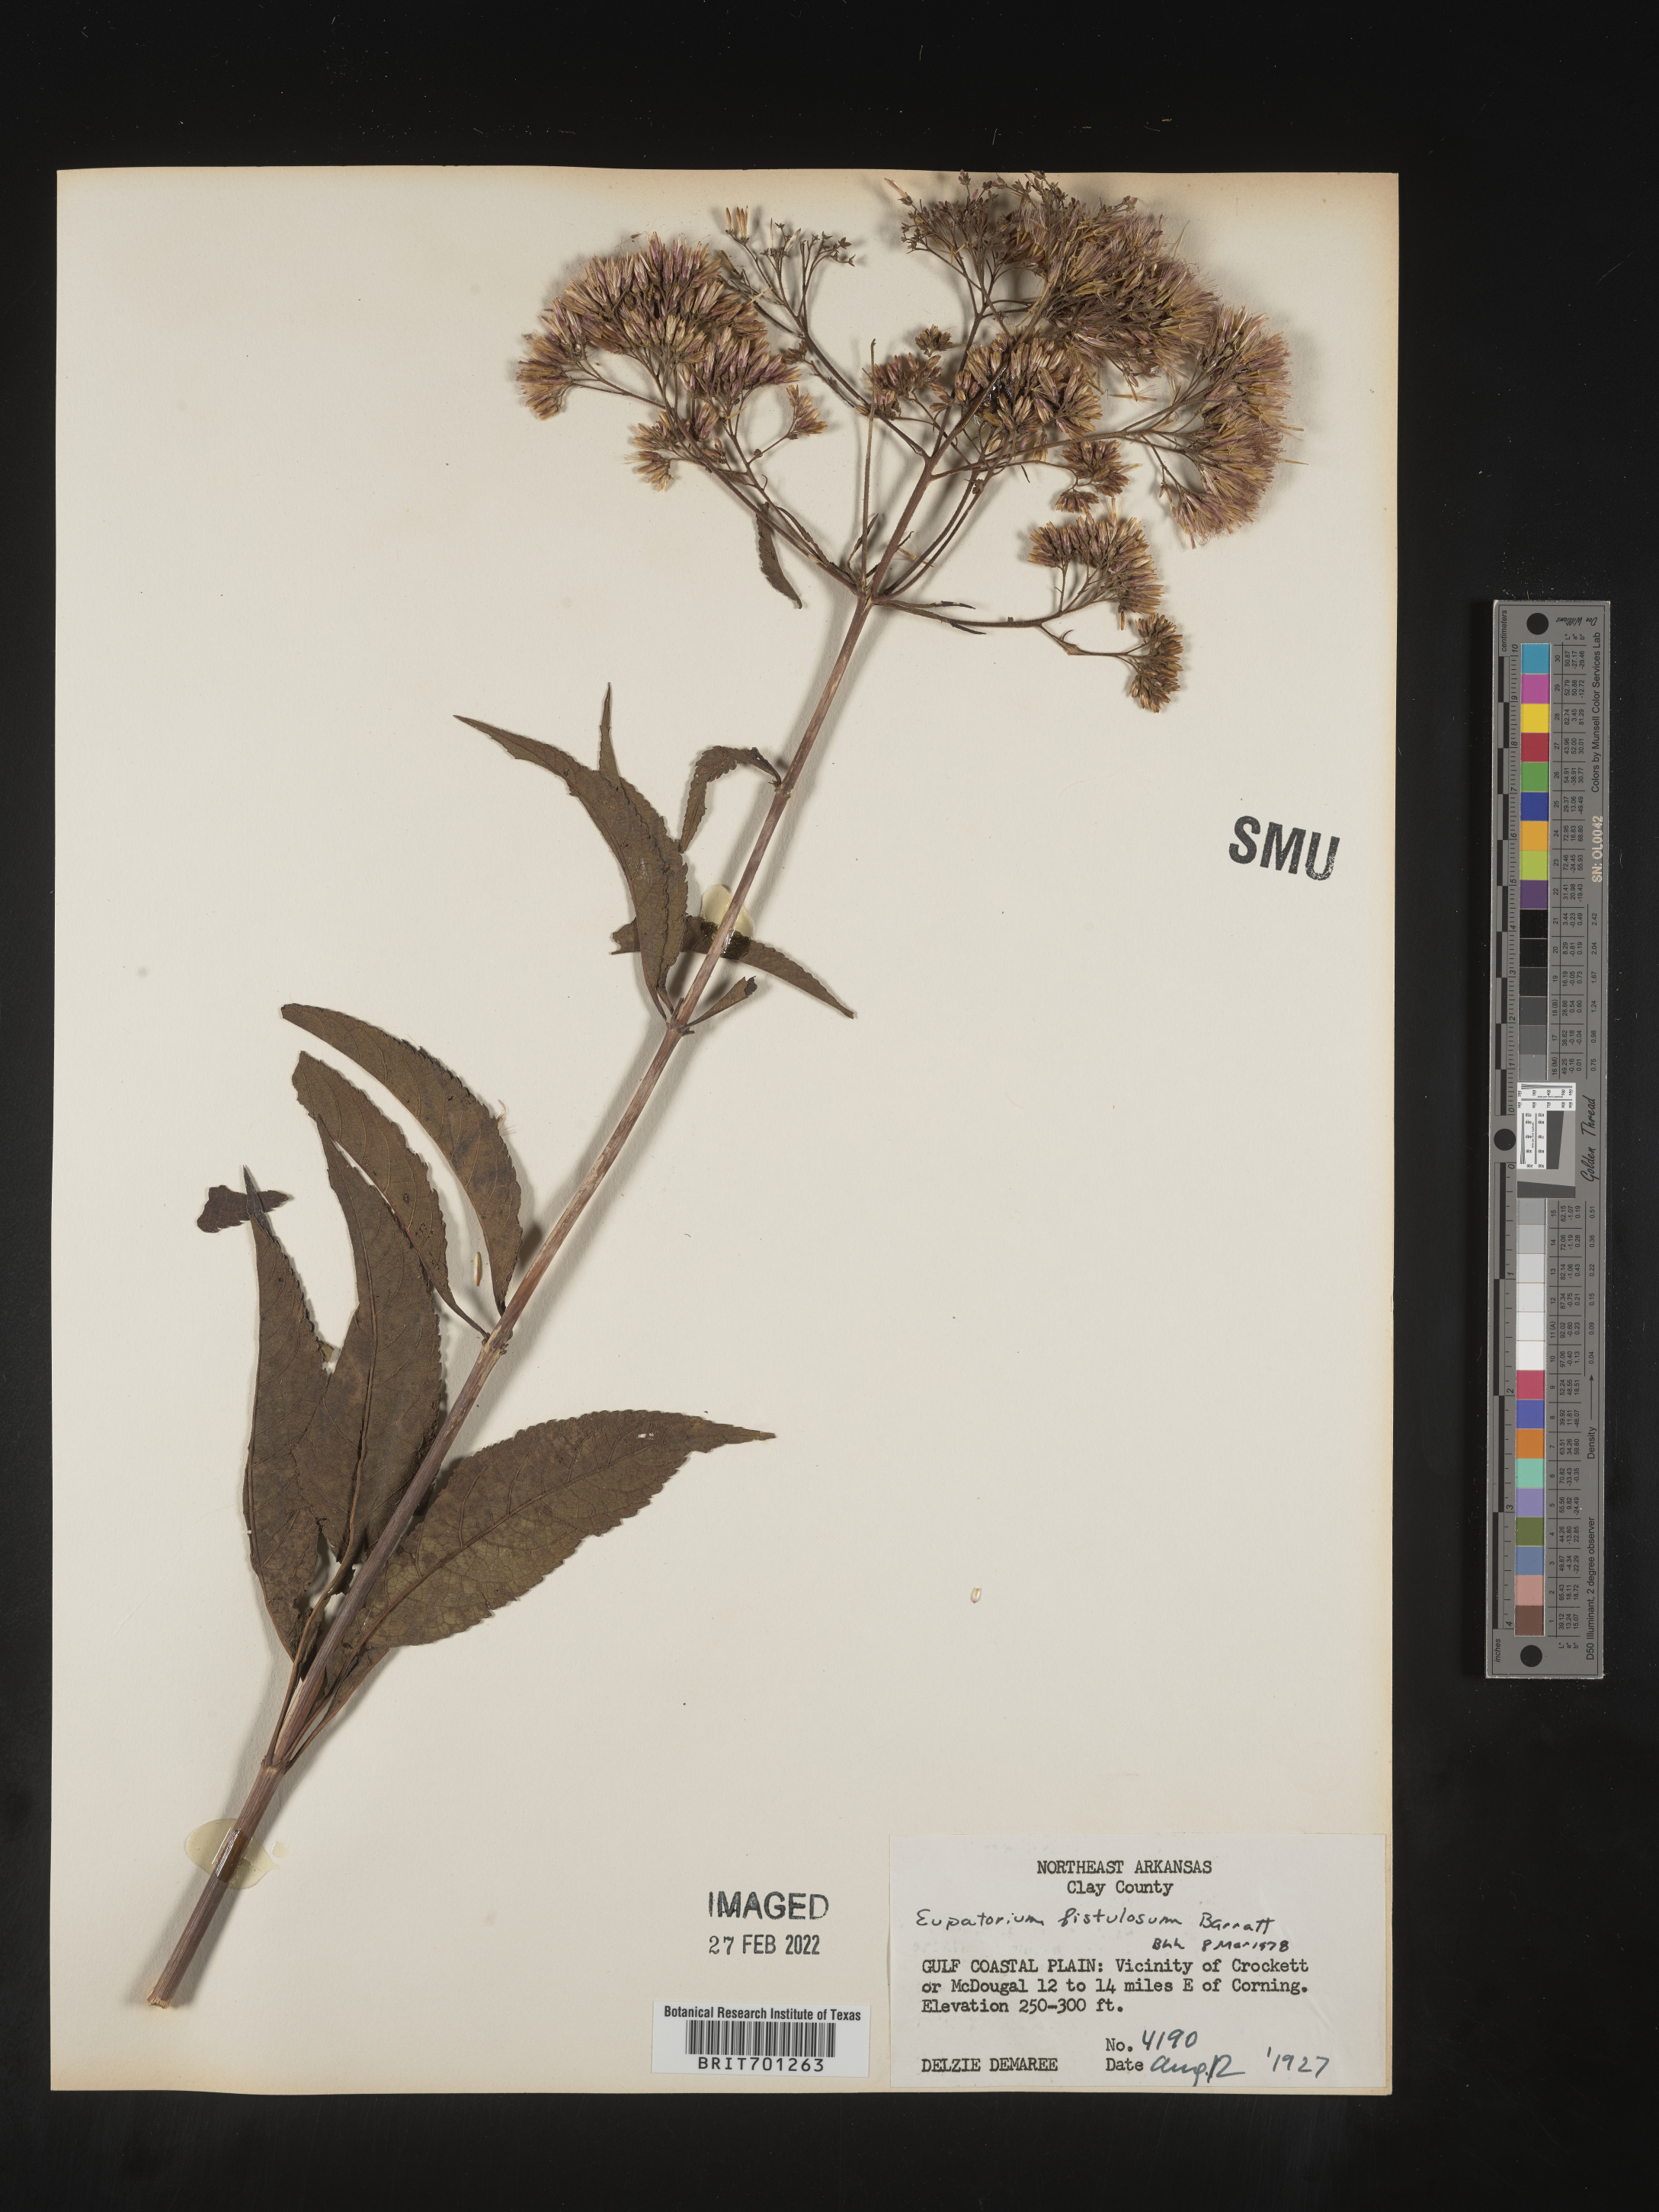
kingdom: Plantae
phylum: Tracheophyta
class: Magnoliopsida
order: Asterales
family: Asteraceae
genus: Eutrochium
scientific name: Eutrochium fistulosum
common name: Trumpetweed
